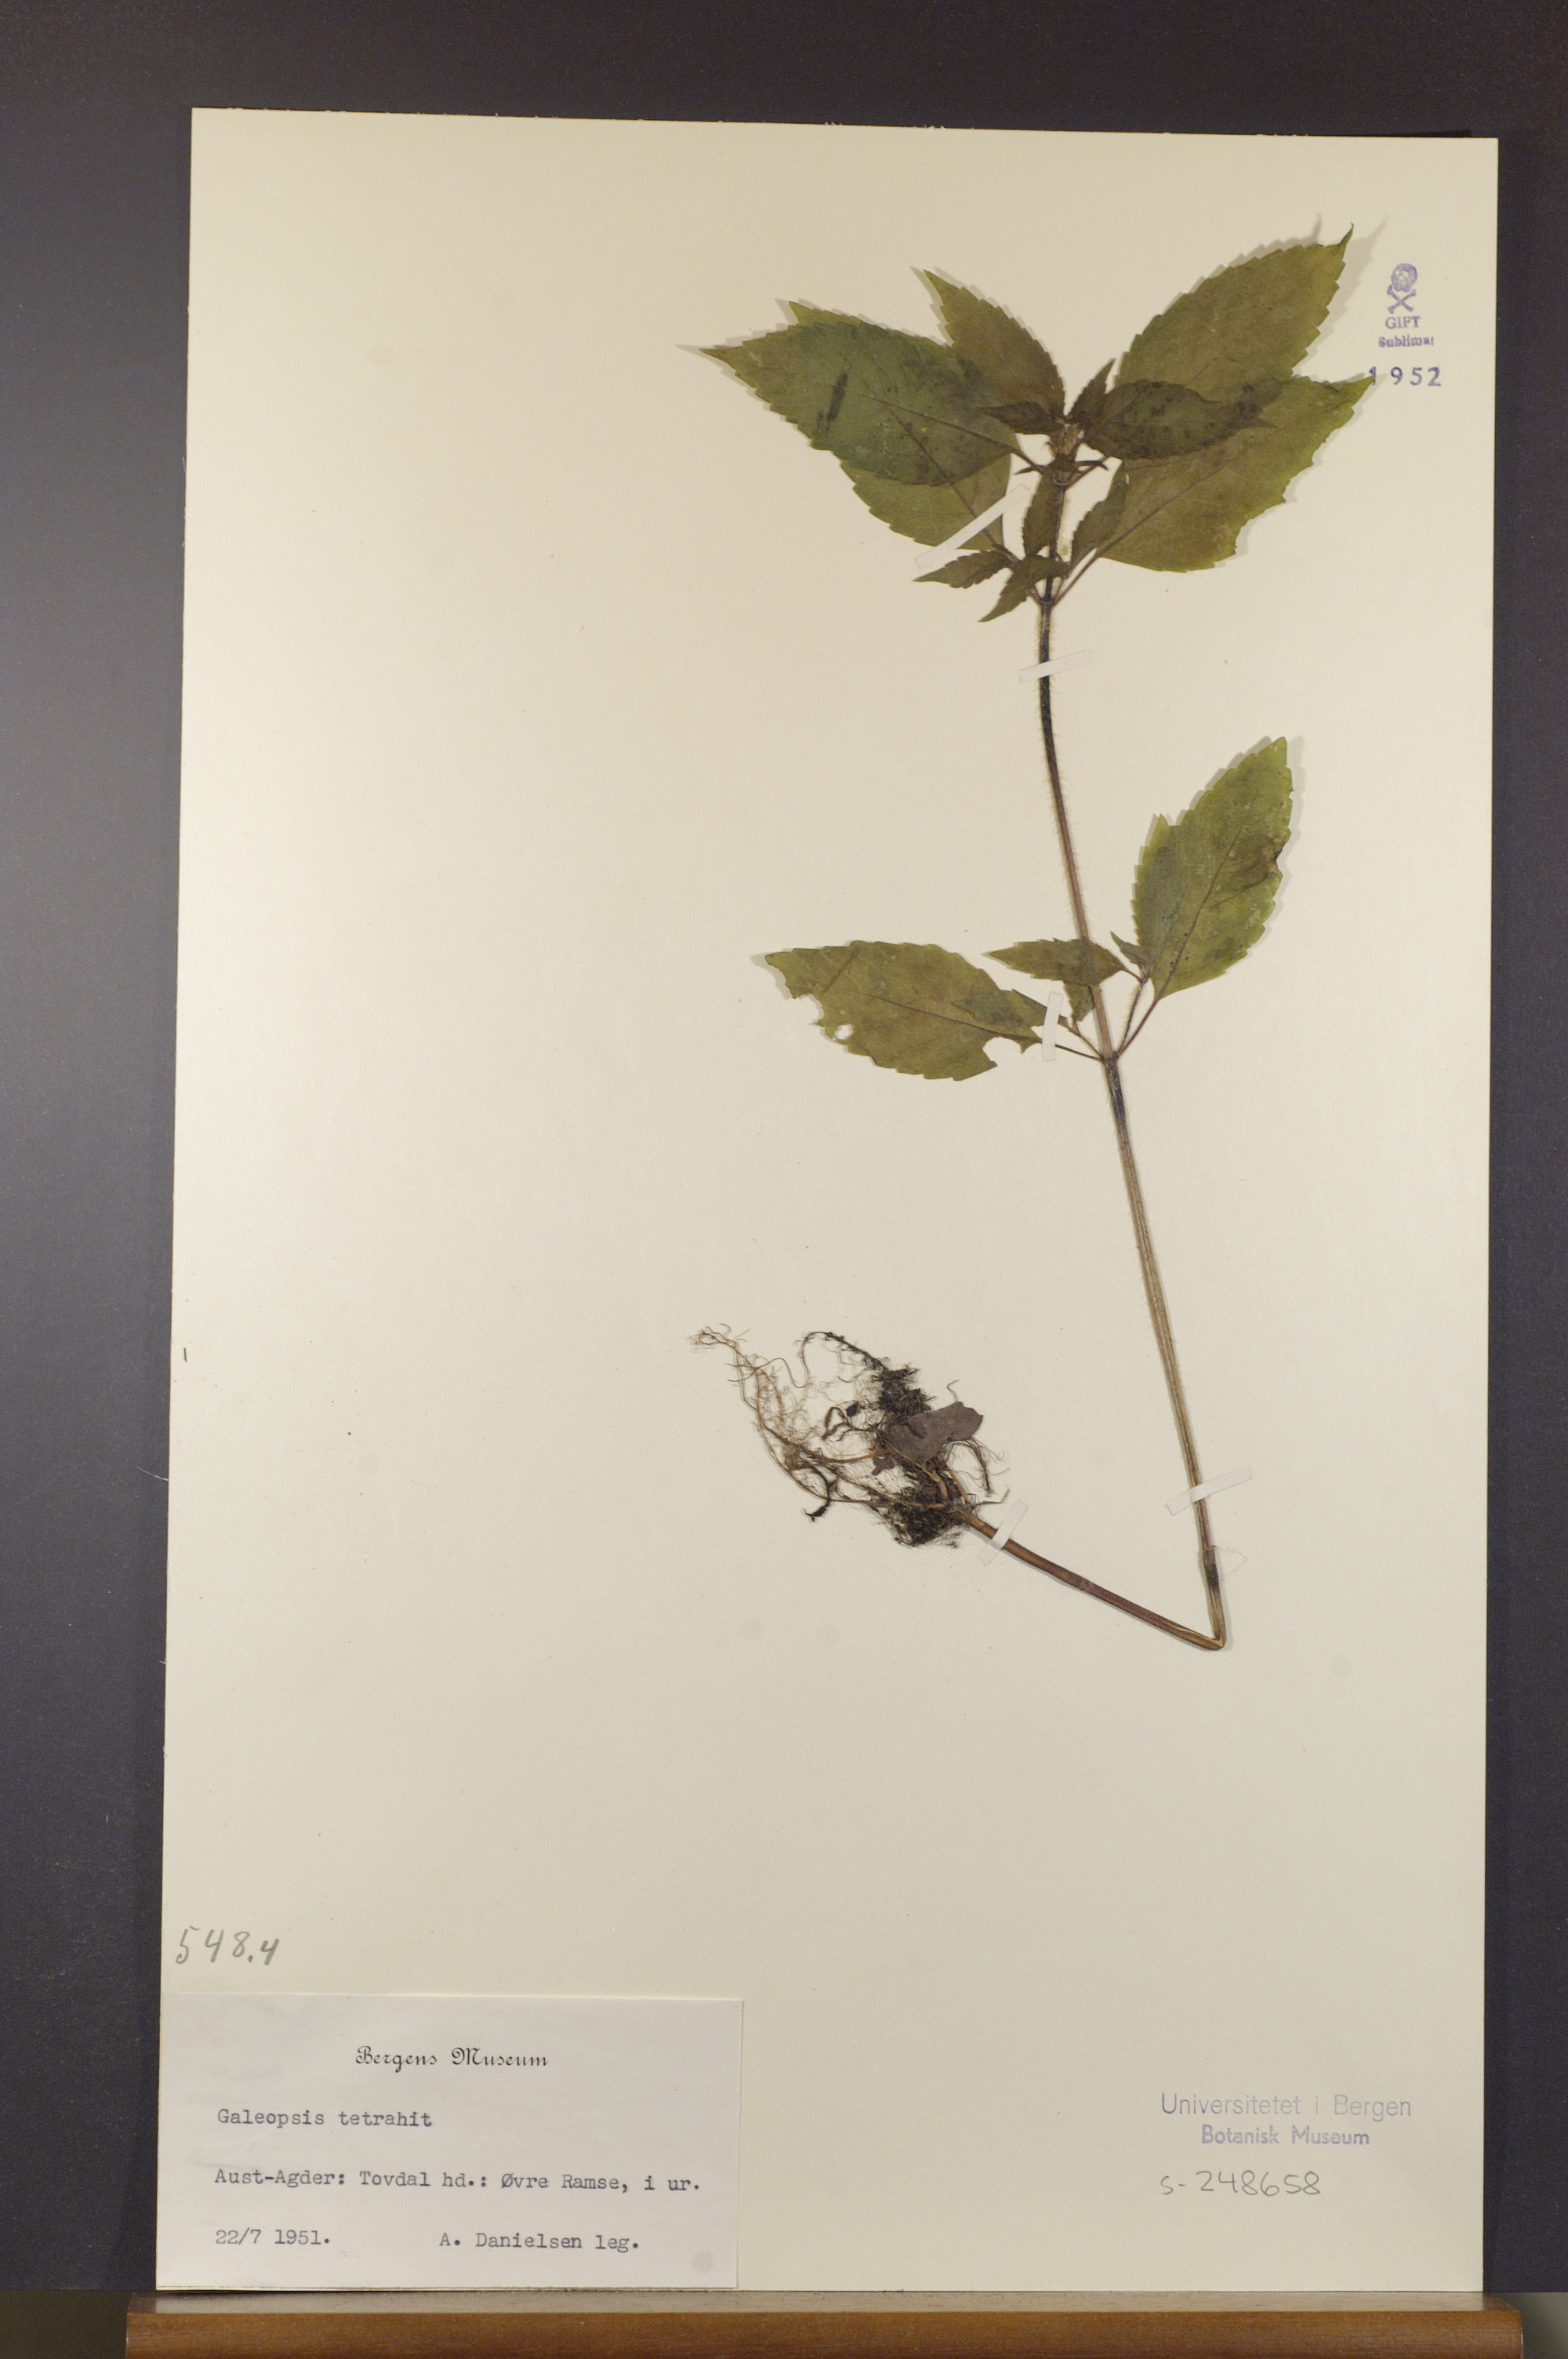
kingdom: Plantae
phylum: Tracheophyta
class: Magnoliopsida
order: Lamiales
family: Lamiaceae
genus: Galeopsis
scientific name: Galeopsis tetrahit
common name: Common hemp-nettle
